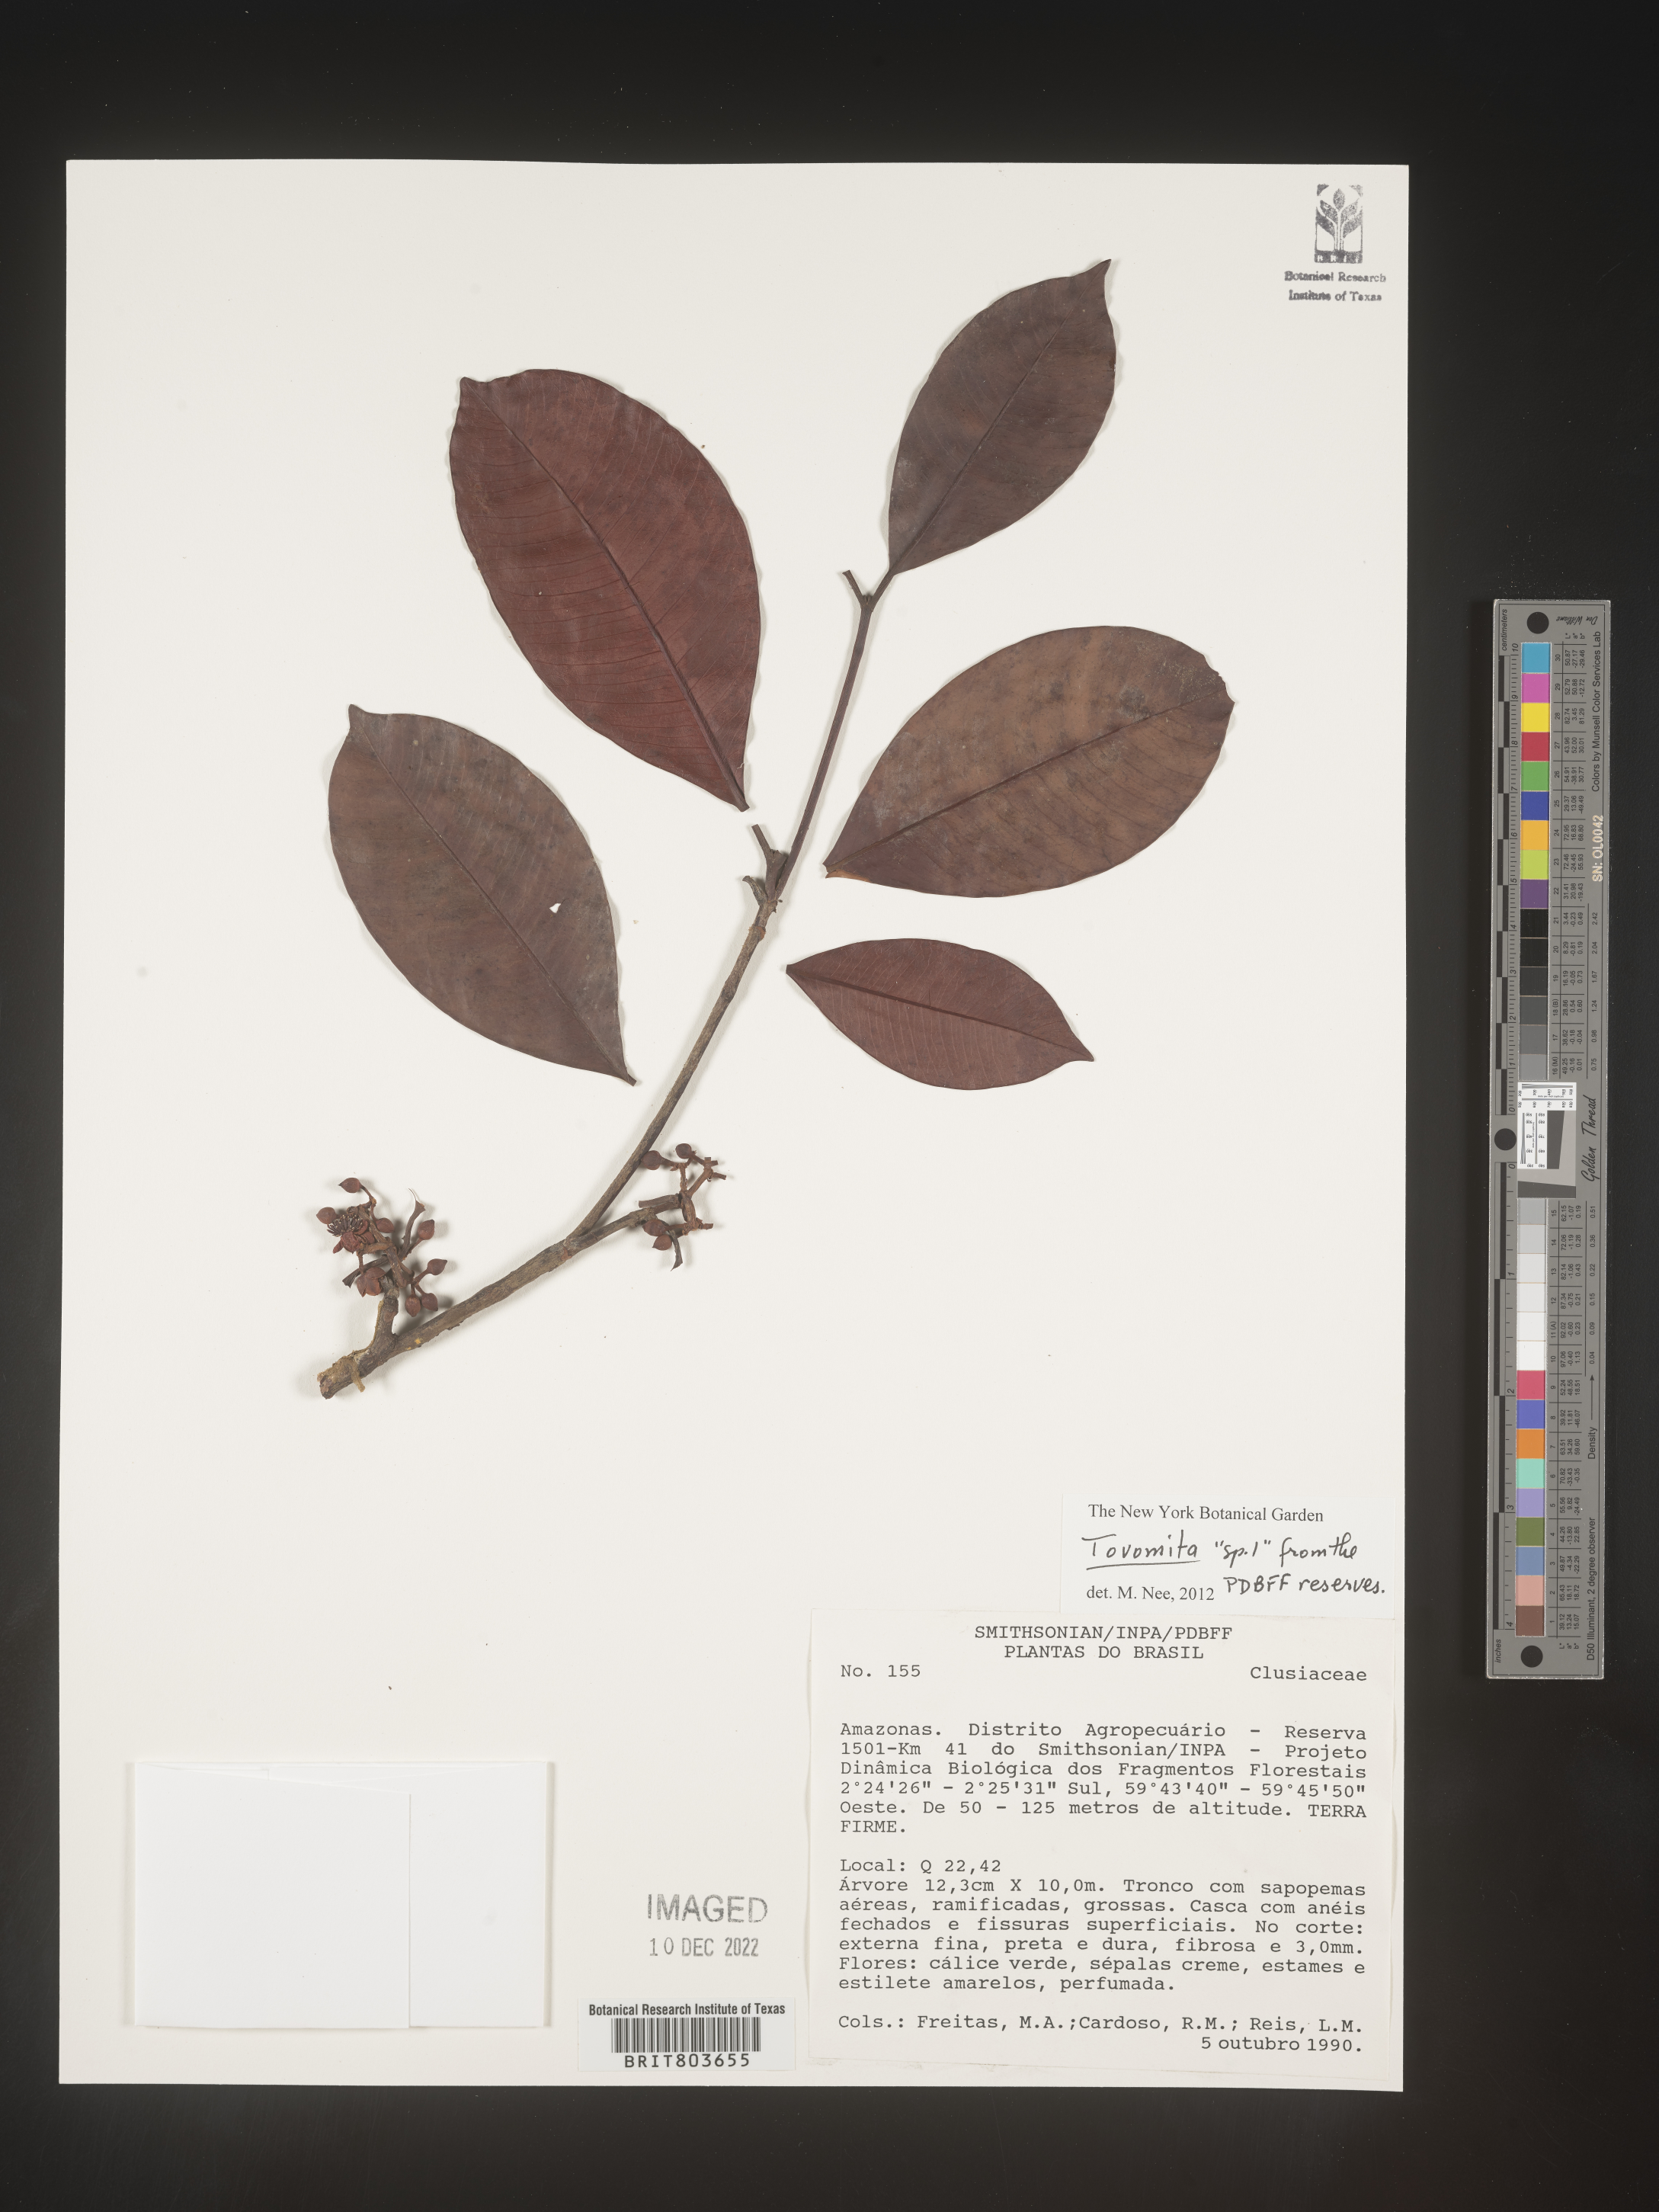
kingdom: Plantae
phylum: Tracheophyta
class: Magnoliopsida
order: Malpighiales
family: Clusiaceae
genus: Tovomita
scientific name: Tovomita
